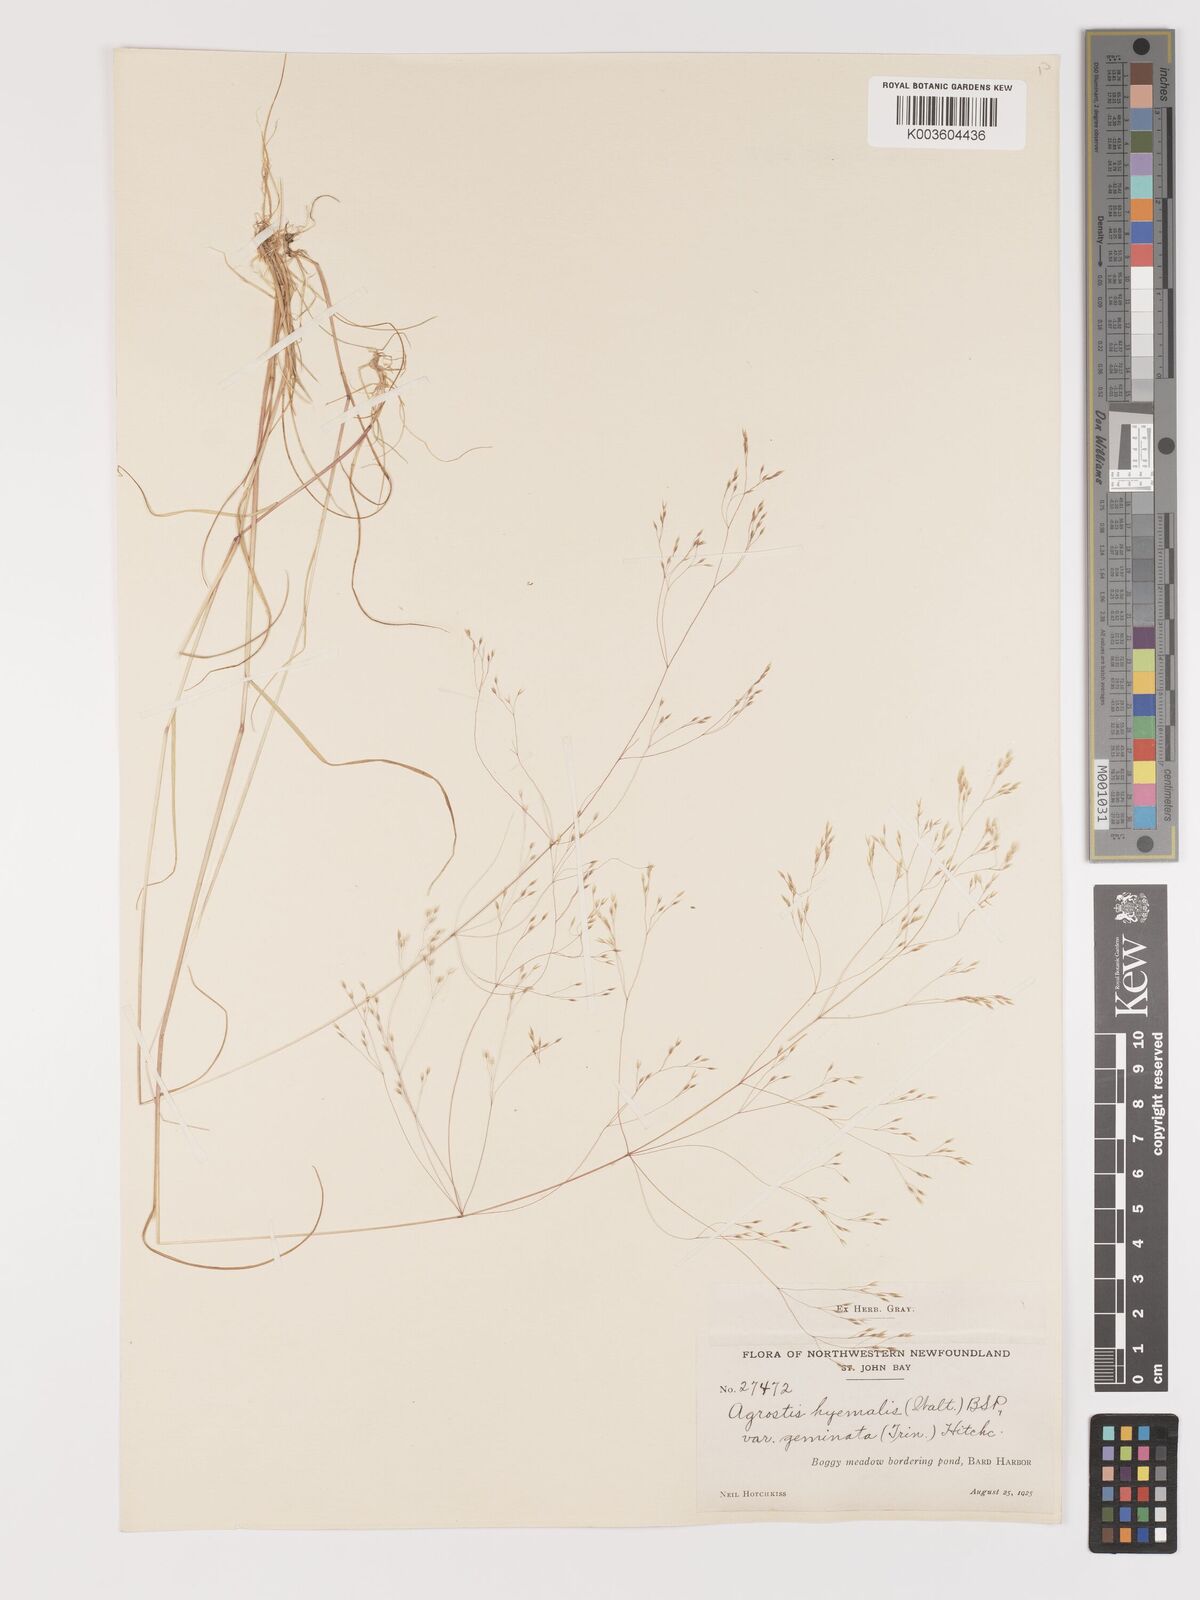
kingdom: Plantae
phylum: Tracheophyta
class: Liliopsida
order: Poales
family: Poaceae
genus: Agrostis
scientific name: Agrostis hyemalis
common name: Small bent
